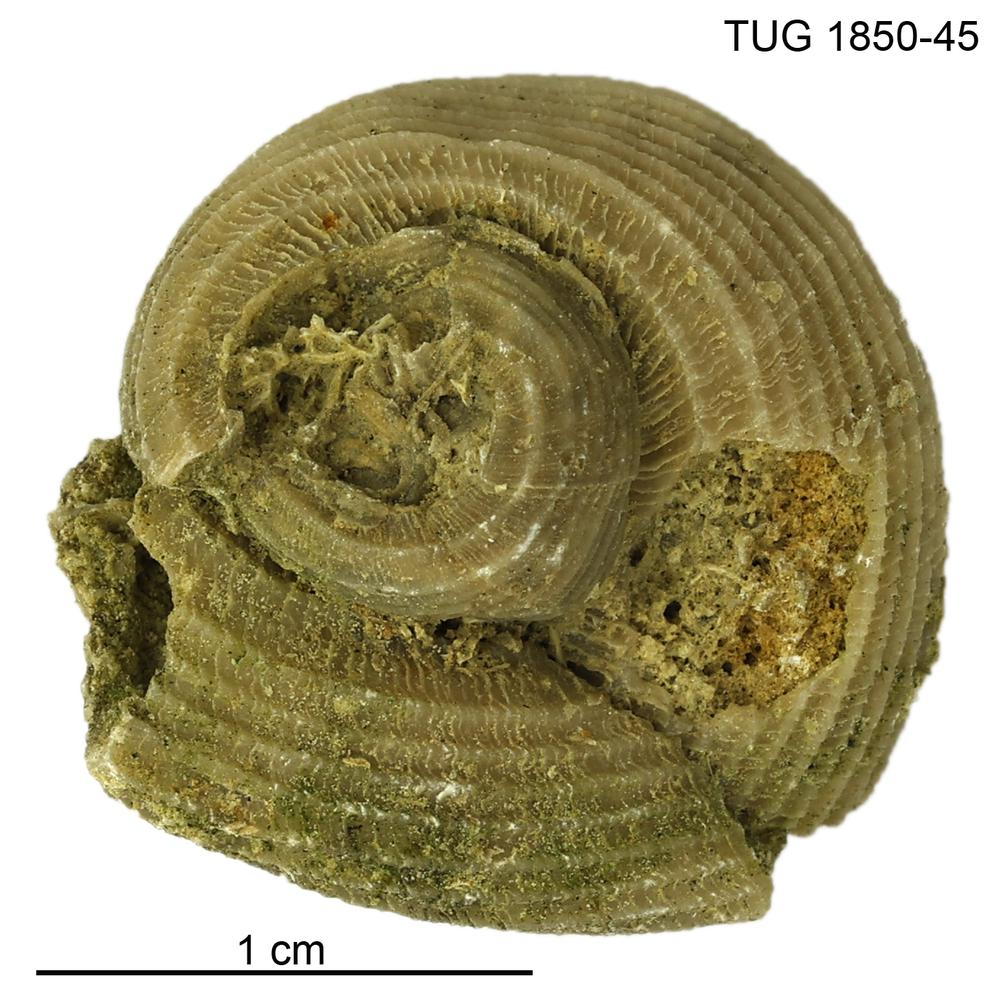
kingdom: Animalia
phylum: Mollusca
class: Gastropoda
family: Euomphalidae
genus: Poleumita
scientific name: Poleumita
